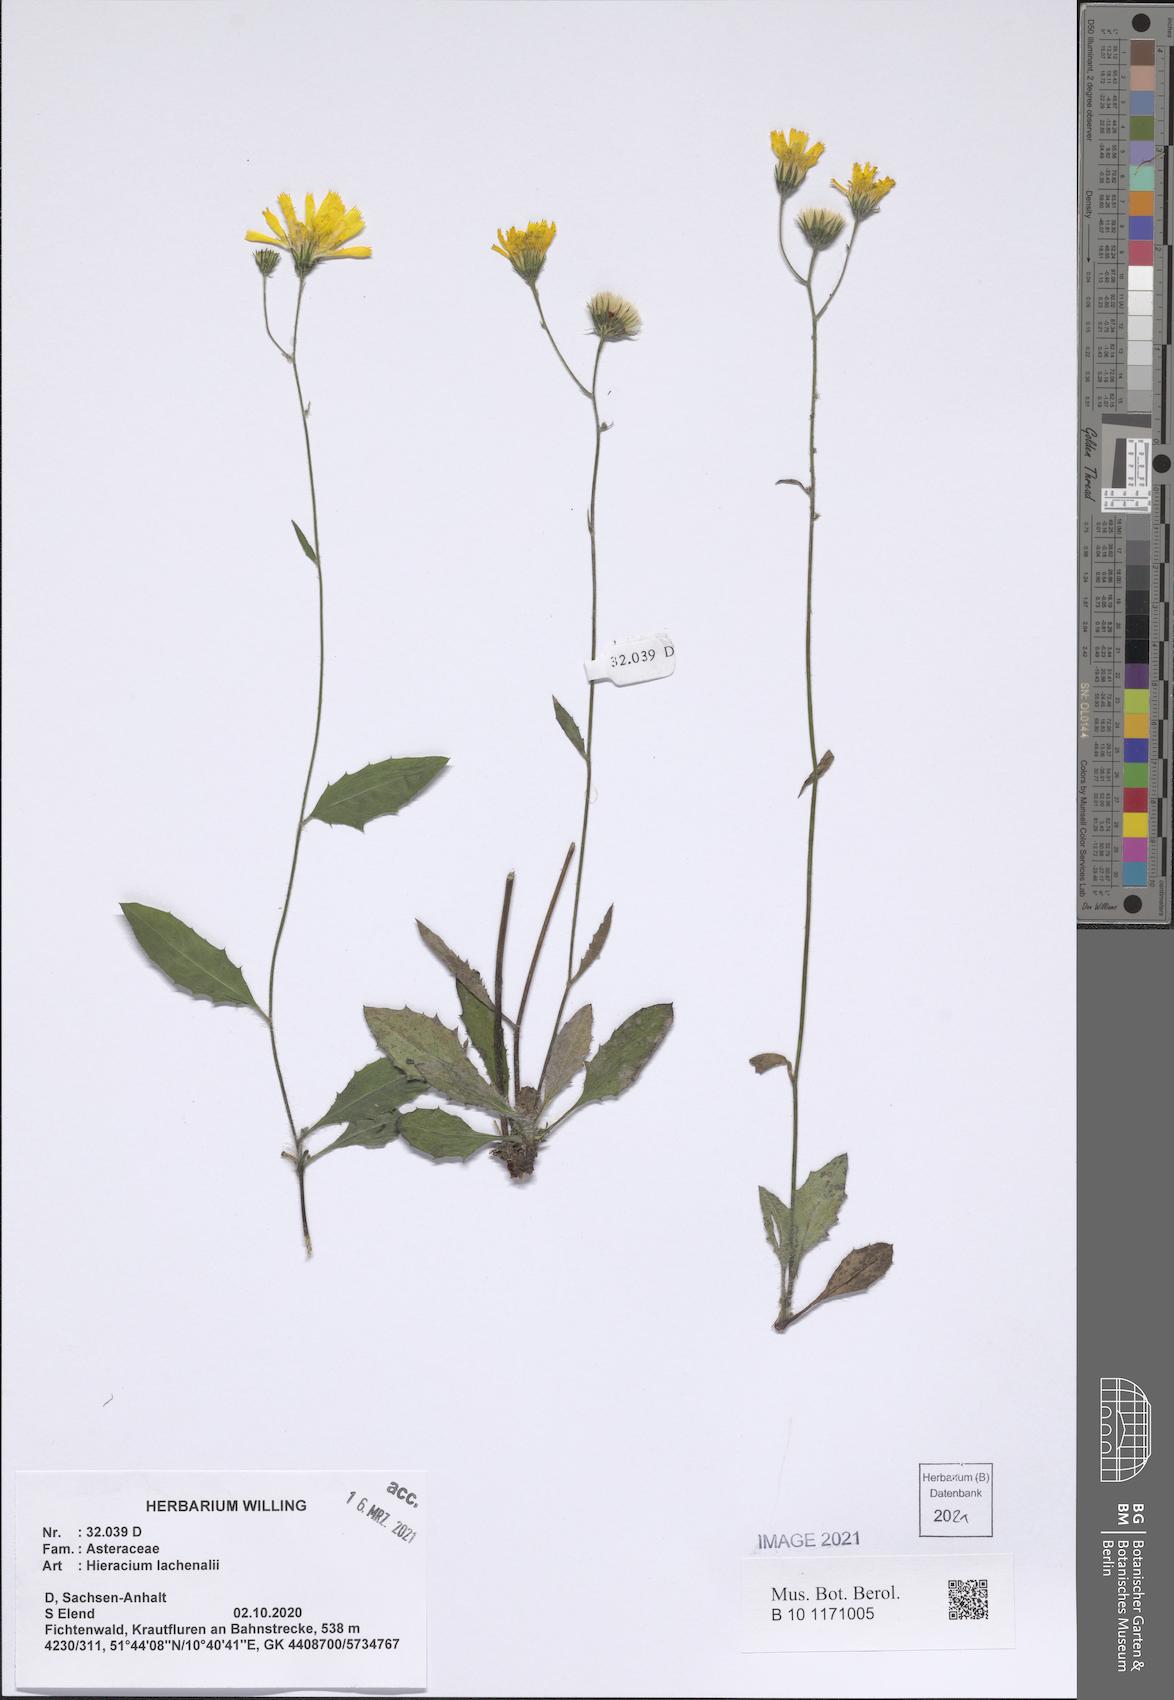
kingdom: Plantae
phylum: Tracheophyta
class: Magnoliopsida
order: Asterales
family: Asteraceae
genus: Hieracium
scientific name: Hieracium lachenalii
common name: Common hawkweed
